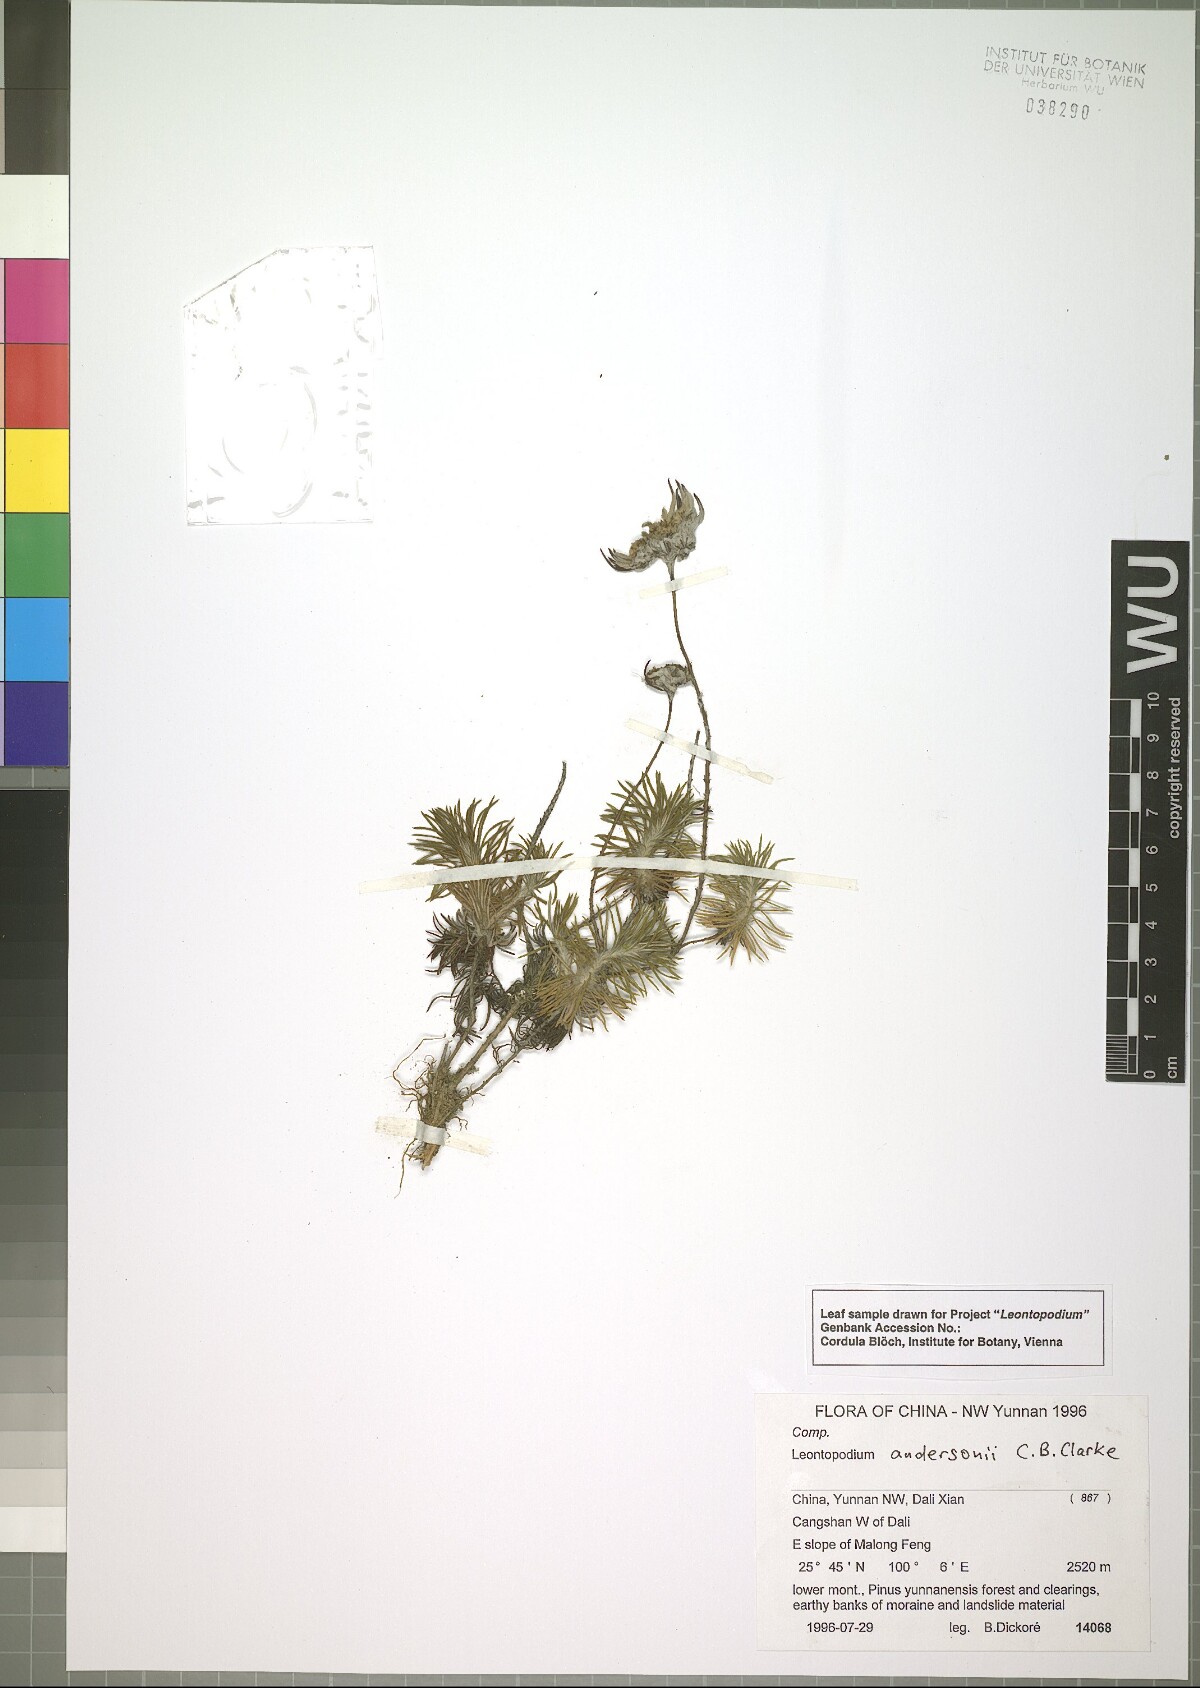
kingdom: Plantae
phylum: Tracheophyta
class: Magnoliopsida
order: Asterales
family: Asteraceae
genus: Leontopodium
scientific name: Leontopodium andersonii
